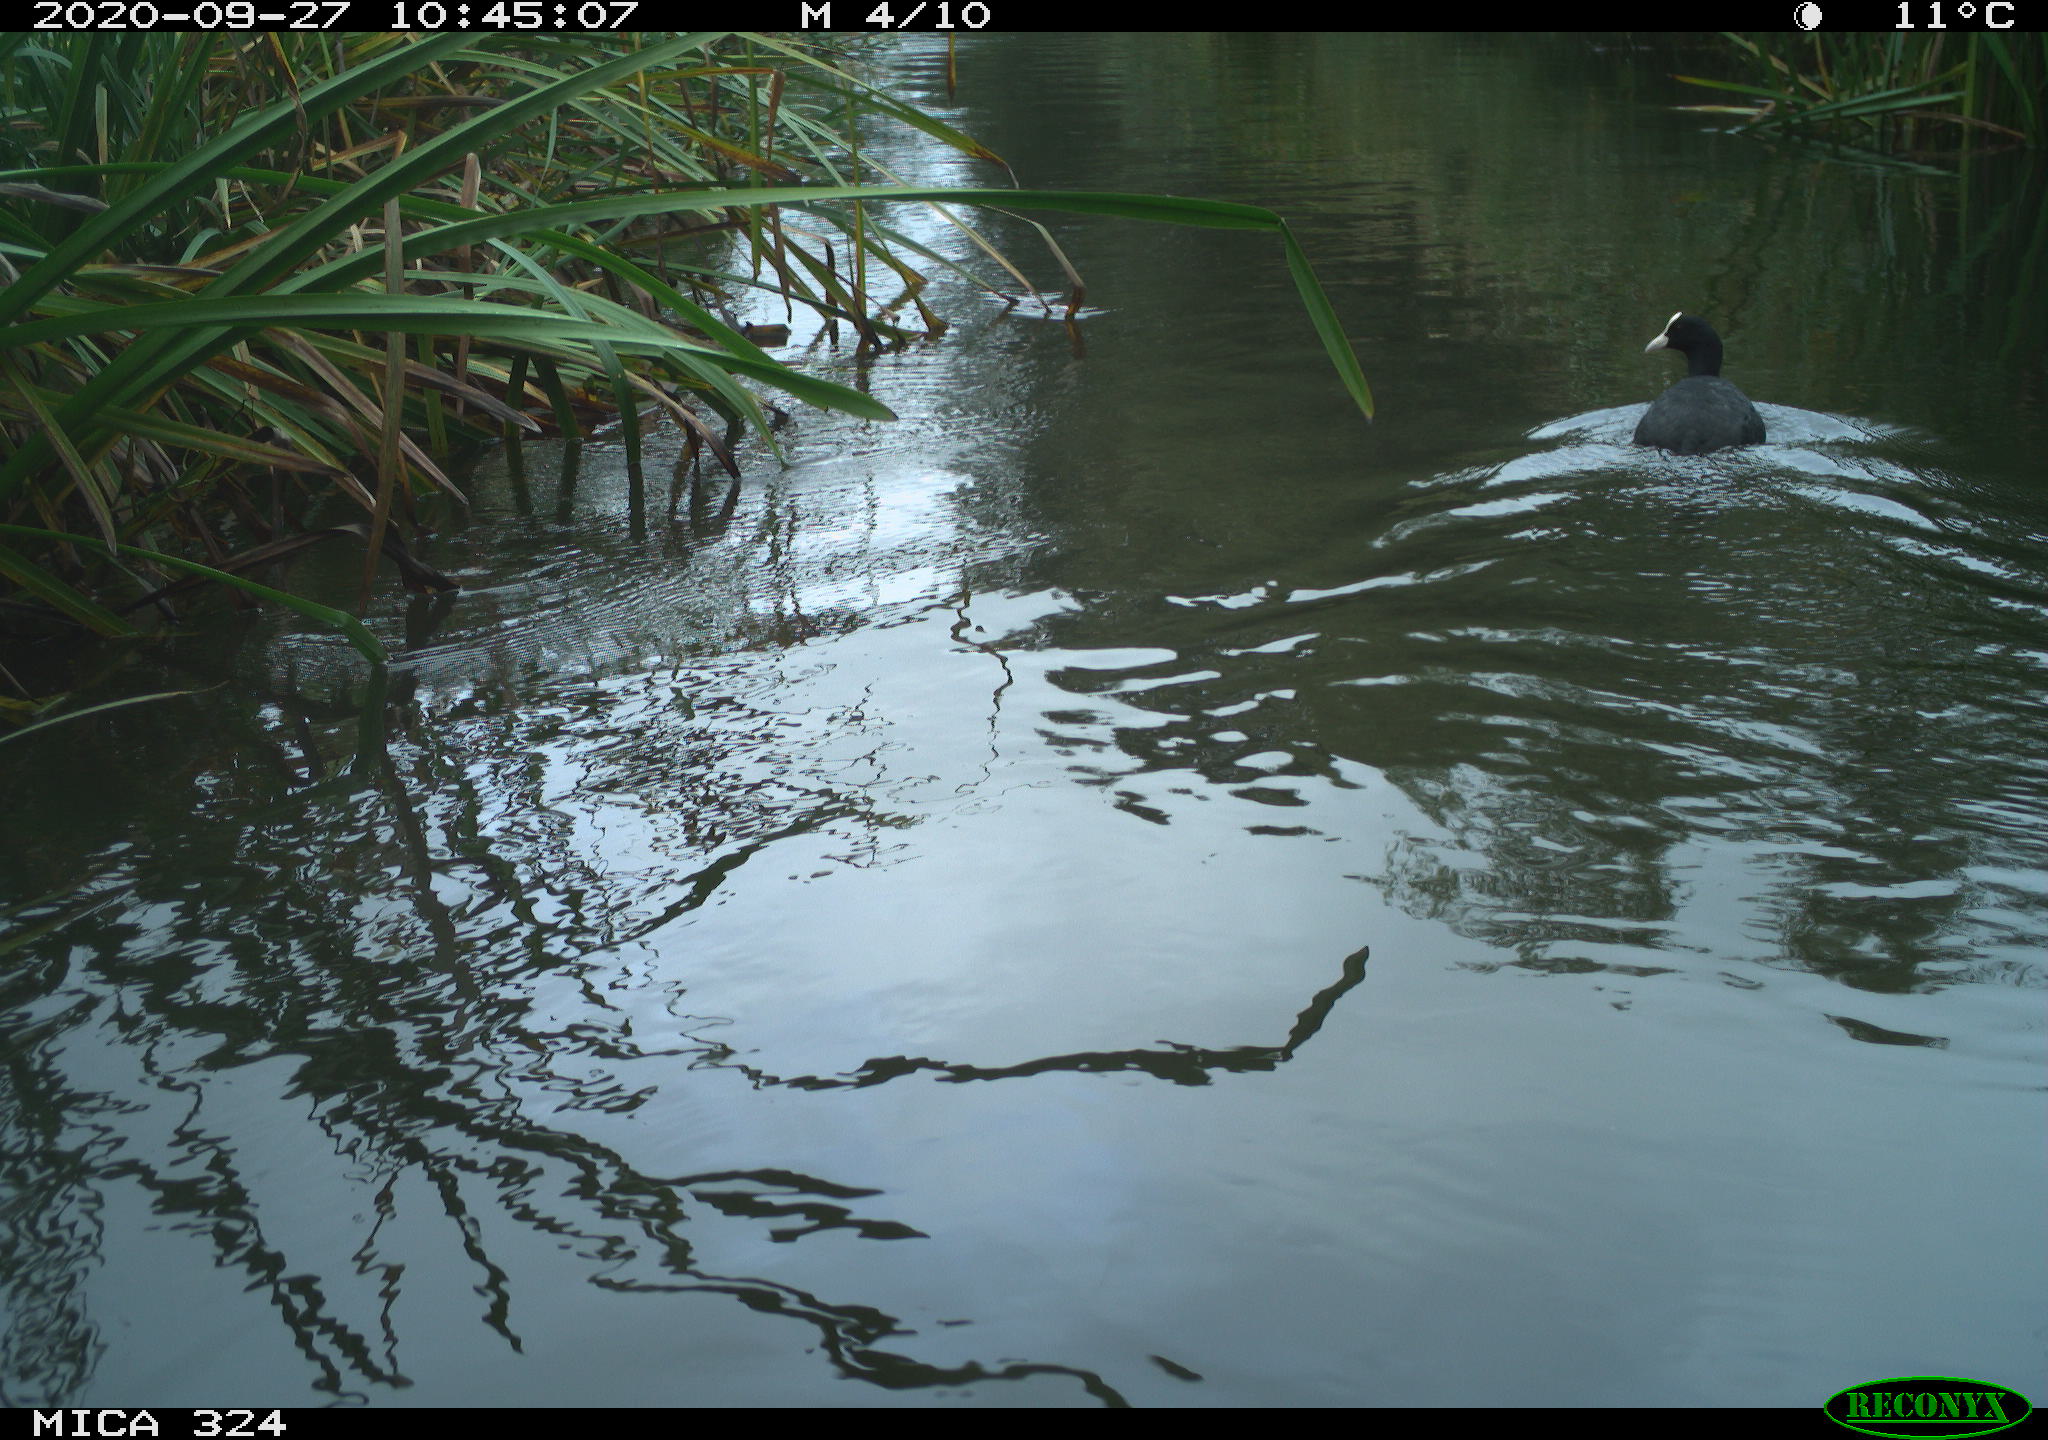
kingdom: Animalia
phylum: Chordata
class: Aves
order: Gruiformes
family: Rallidae
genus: Fulica
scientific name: Fulica atra
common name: Eurasian coot
